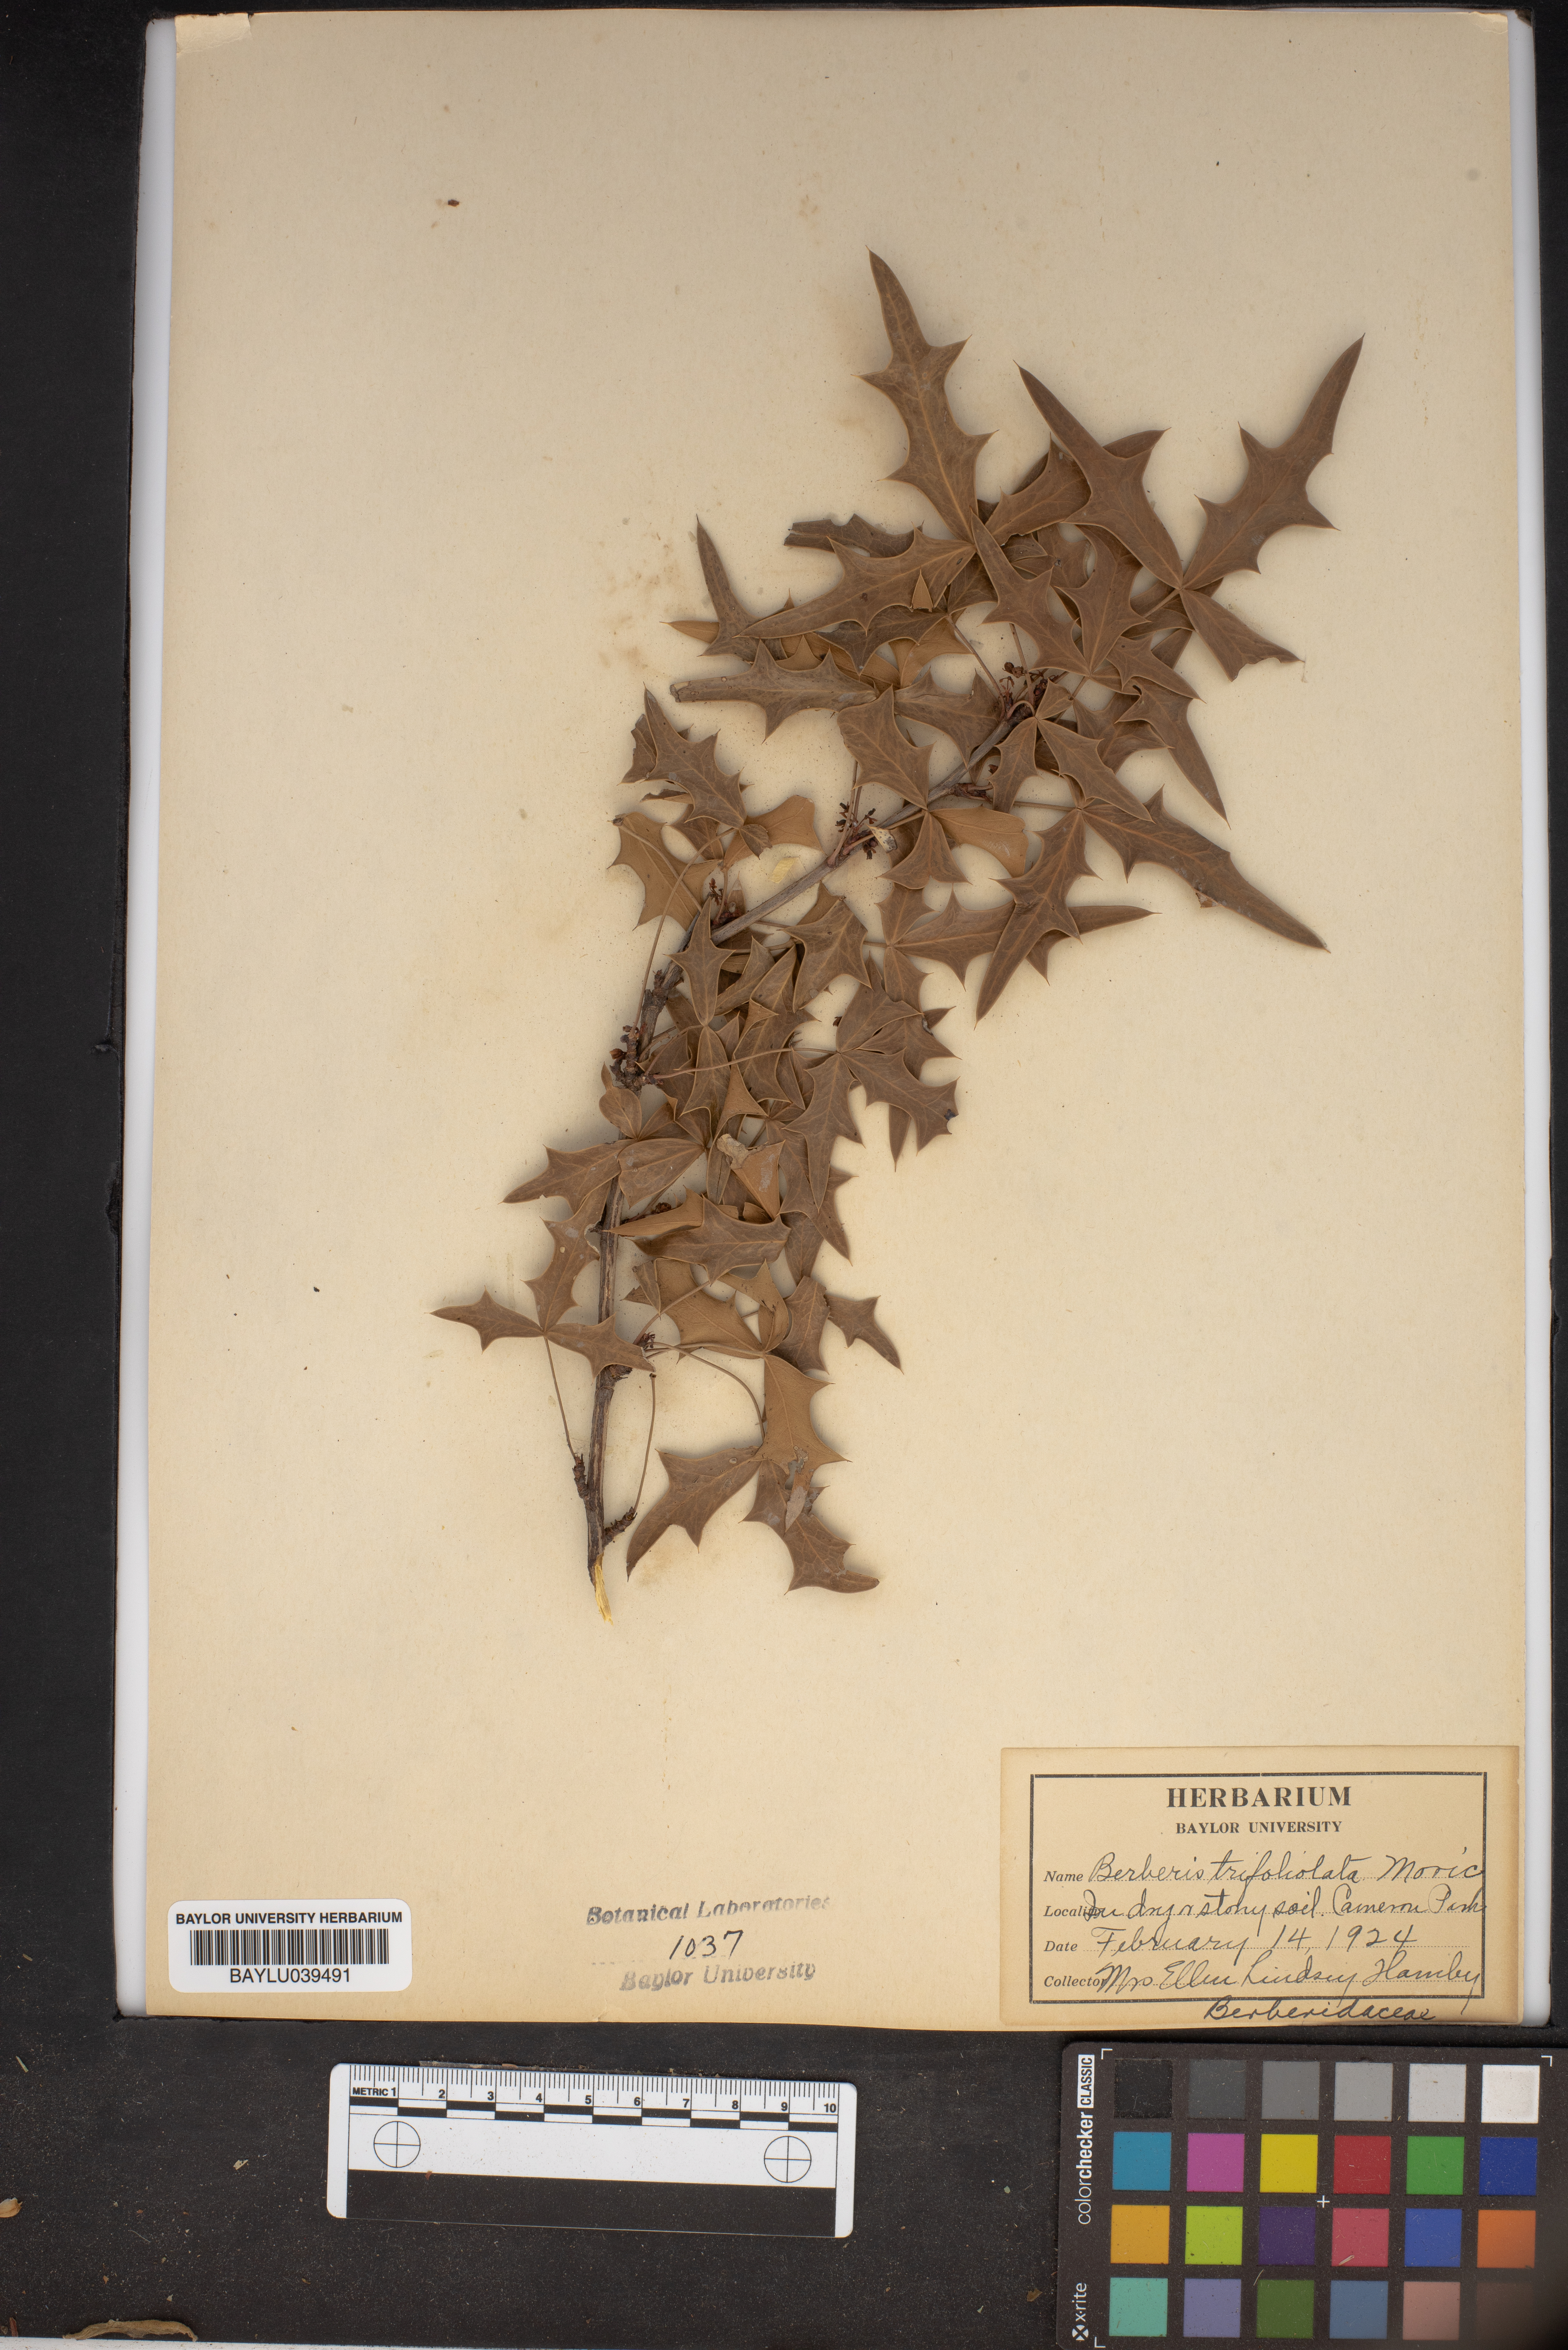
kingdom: Plantae
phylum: Tracheophyta
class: Magnoliopsida
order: Ranunculales
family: Berberidaceae
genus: Alloberberis
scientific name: Alloberberis trifoliolata
